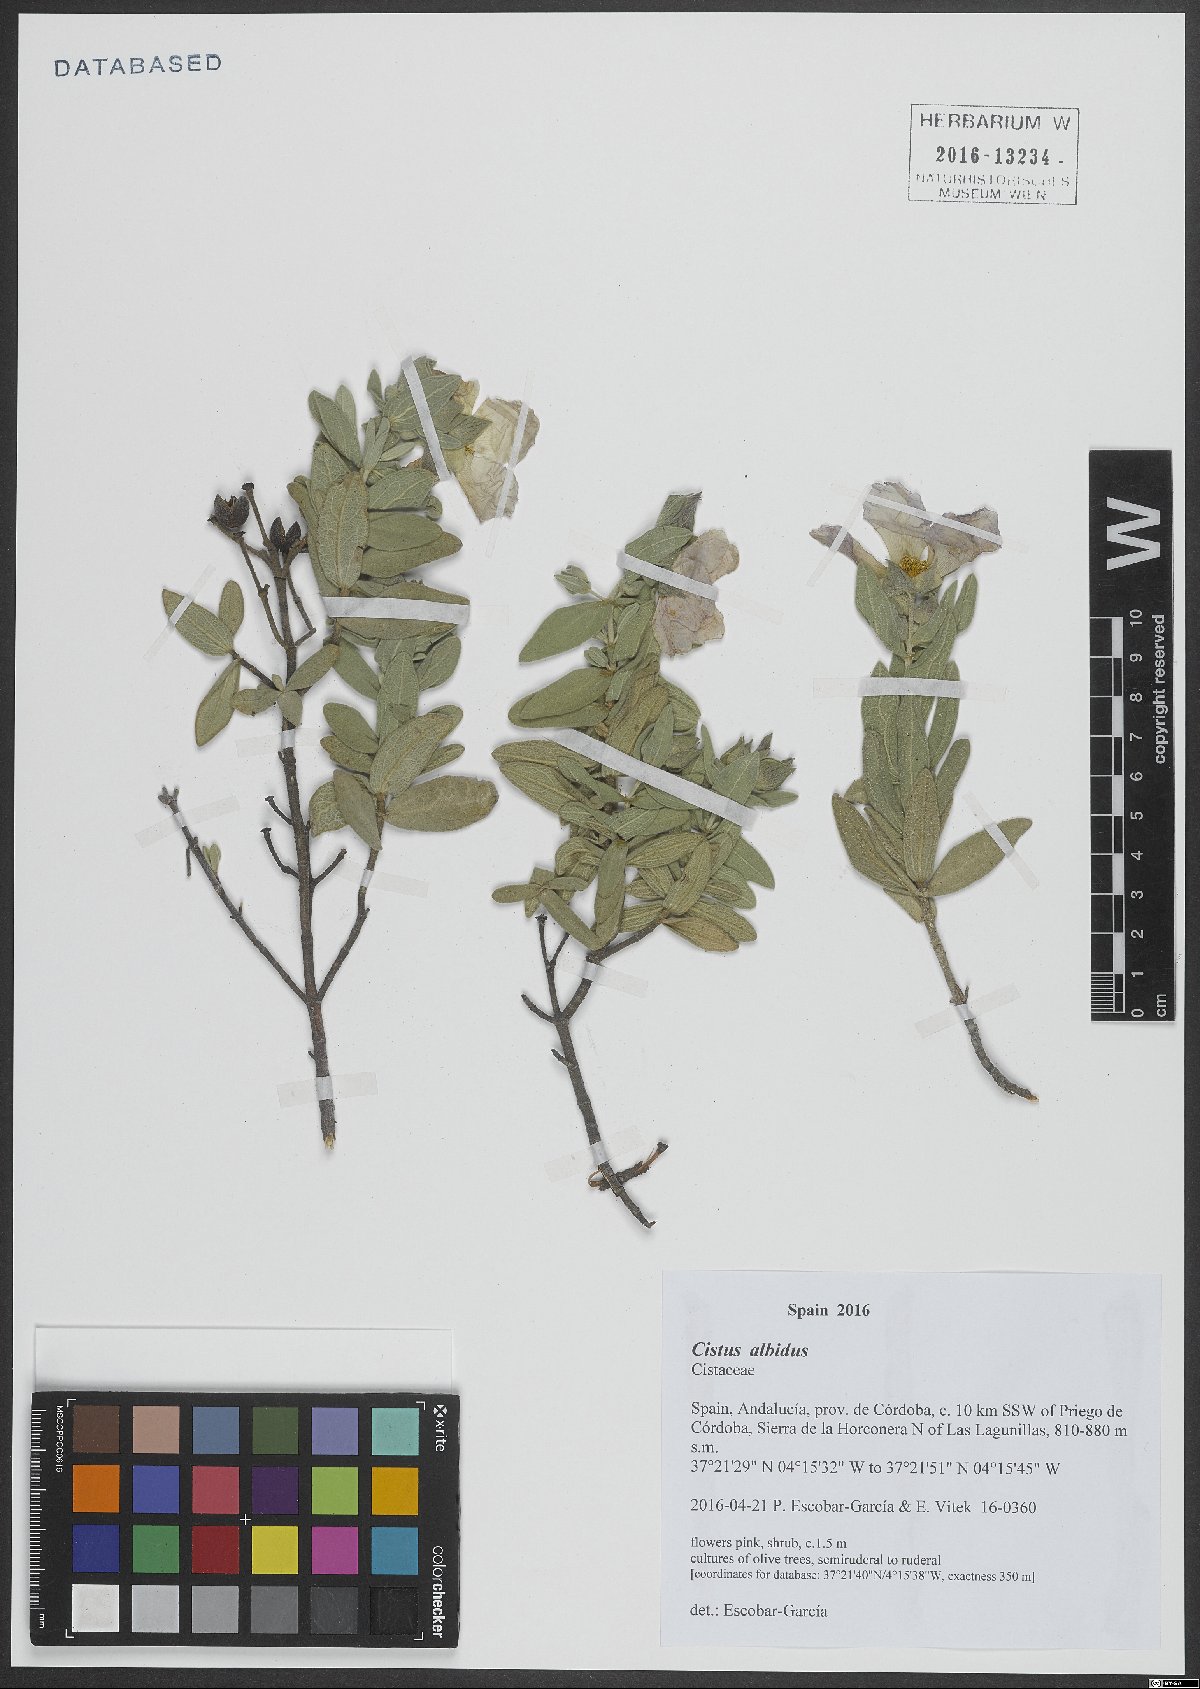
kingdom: Plantae
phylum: Tracheophyta
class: Magnoliopsida
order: Malvales
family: Cistaceae
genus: Cistus
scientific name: Cistus albidus
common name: White-leaf rock-rose
